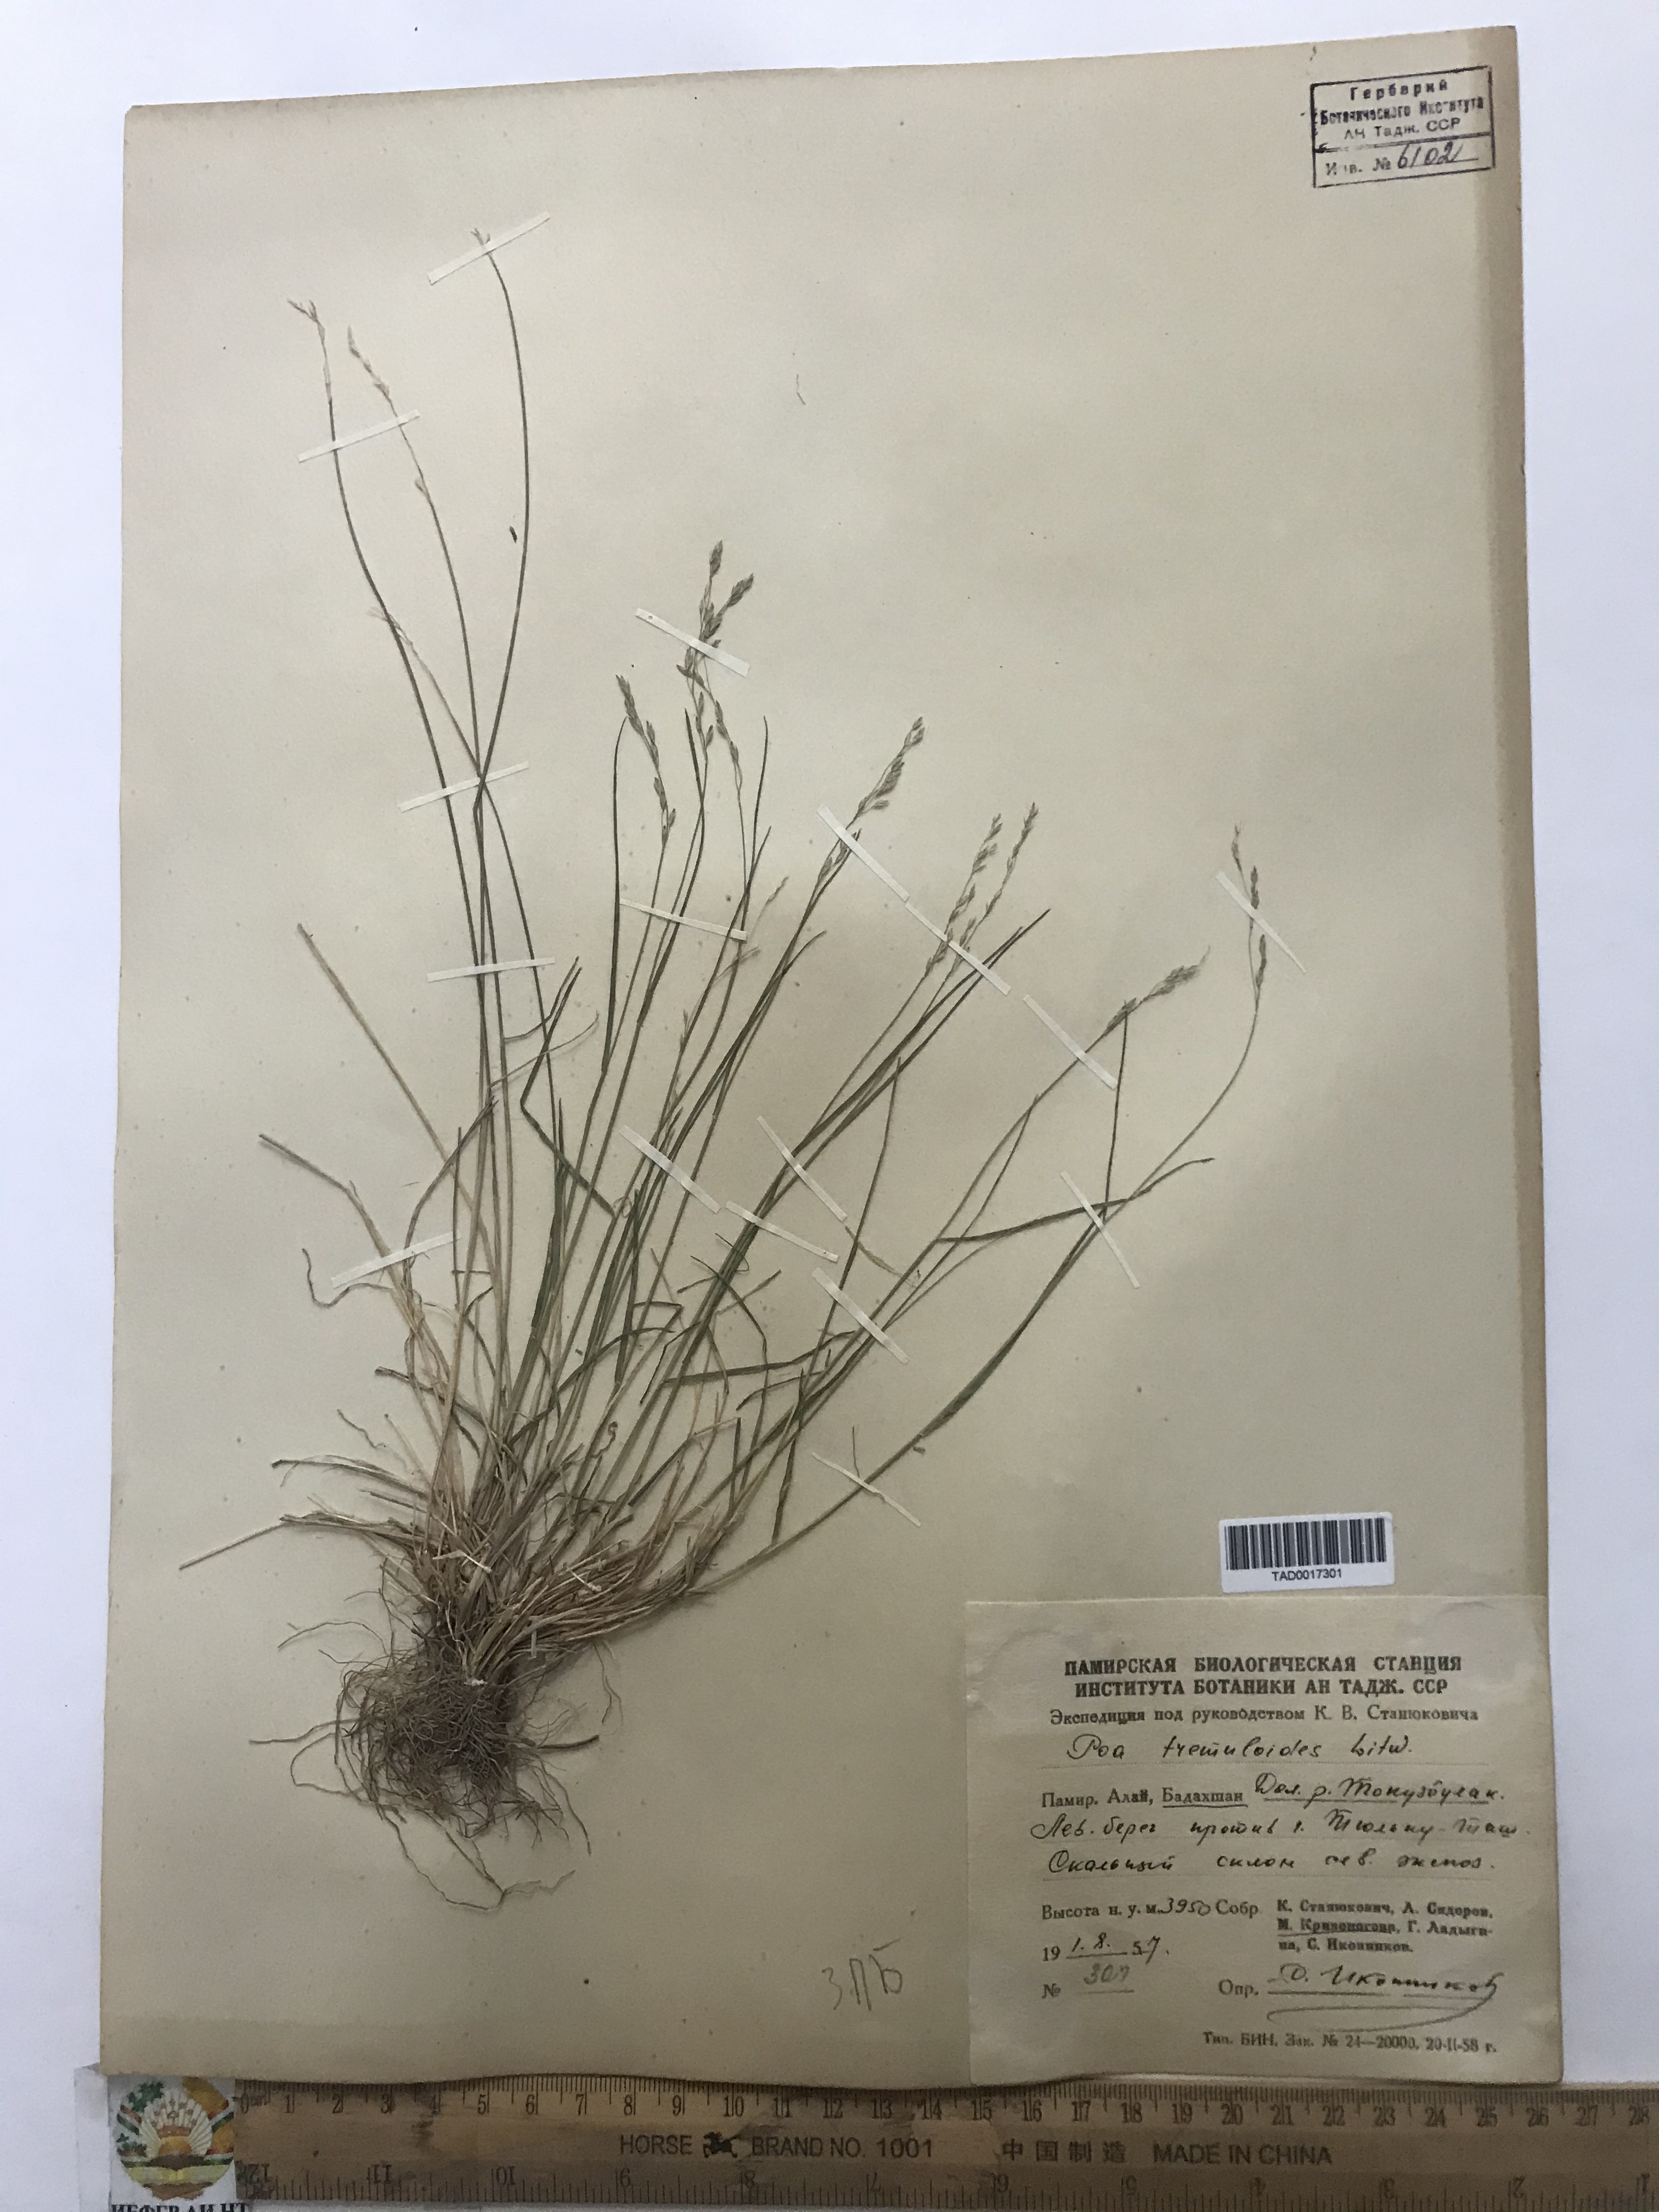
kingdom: Plantae
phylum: Tracheophyta
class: Liliopsida
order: Poales
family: Poaceae
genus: Poa
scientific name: Poa glauca
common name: Glaucous bluegrass
